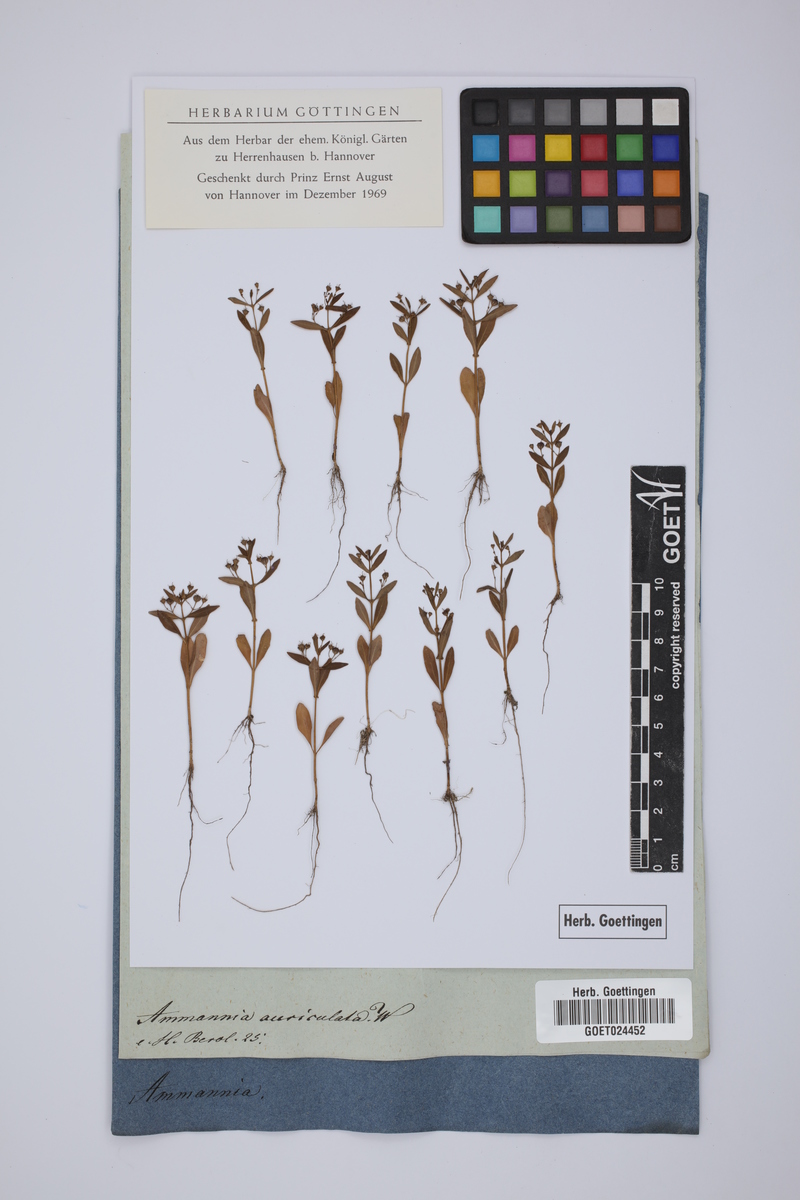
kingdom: Plantae
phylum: Tracheophyta
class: Magnoliopsida
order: Myrtales
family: Lythraceae
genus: Ammannia
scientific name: Ammannia auriculata
